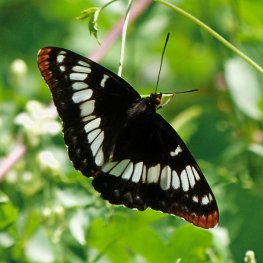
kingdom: Animalia
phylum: Arthropoda
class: Insecta
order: Lepidoptera
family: Nymphalidae
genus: Limenitis
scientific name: Limenitis lorquini
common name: Lorquin's Admiral
